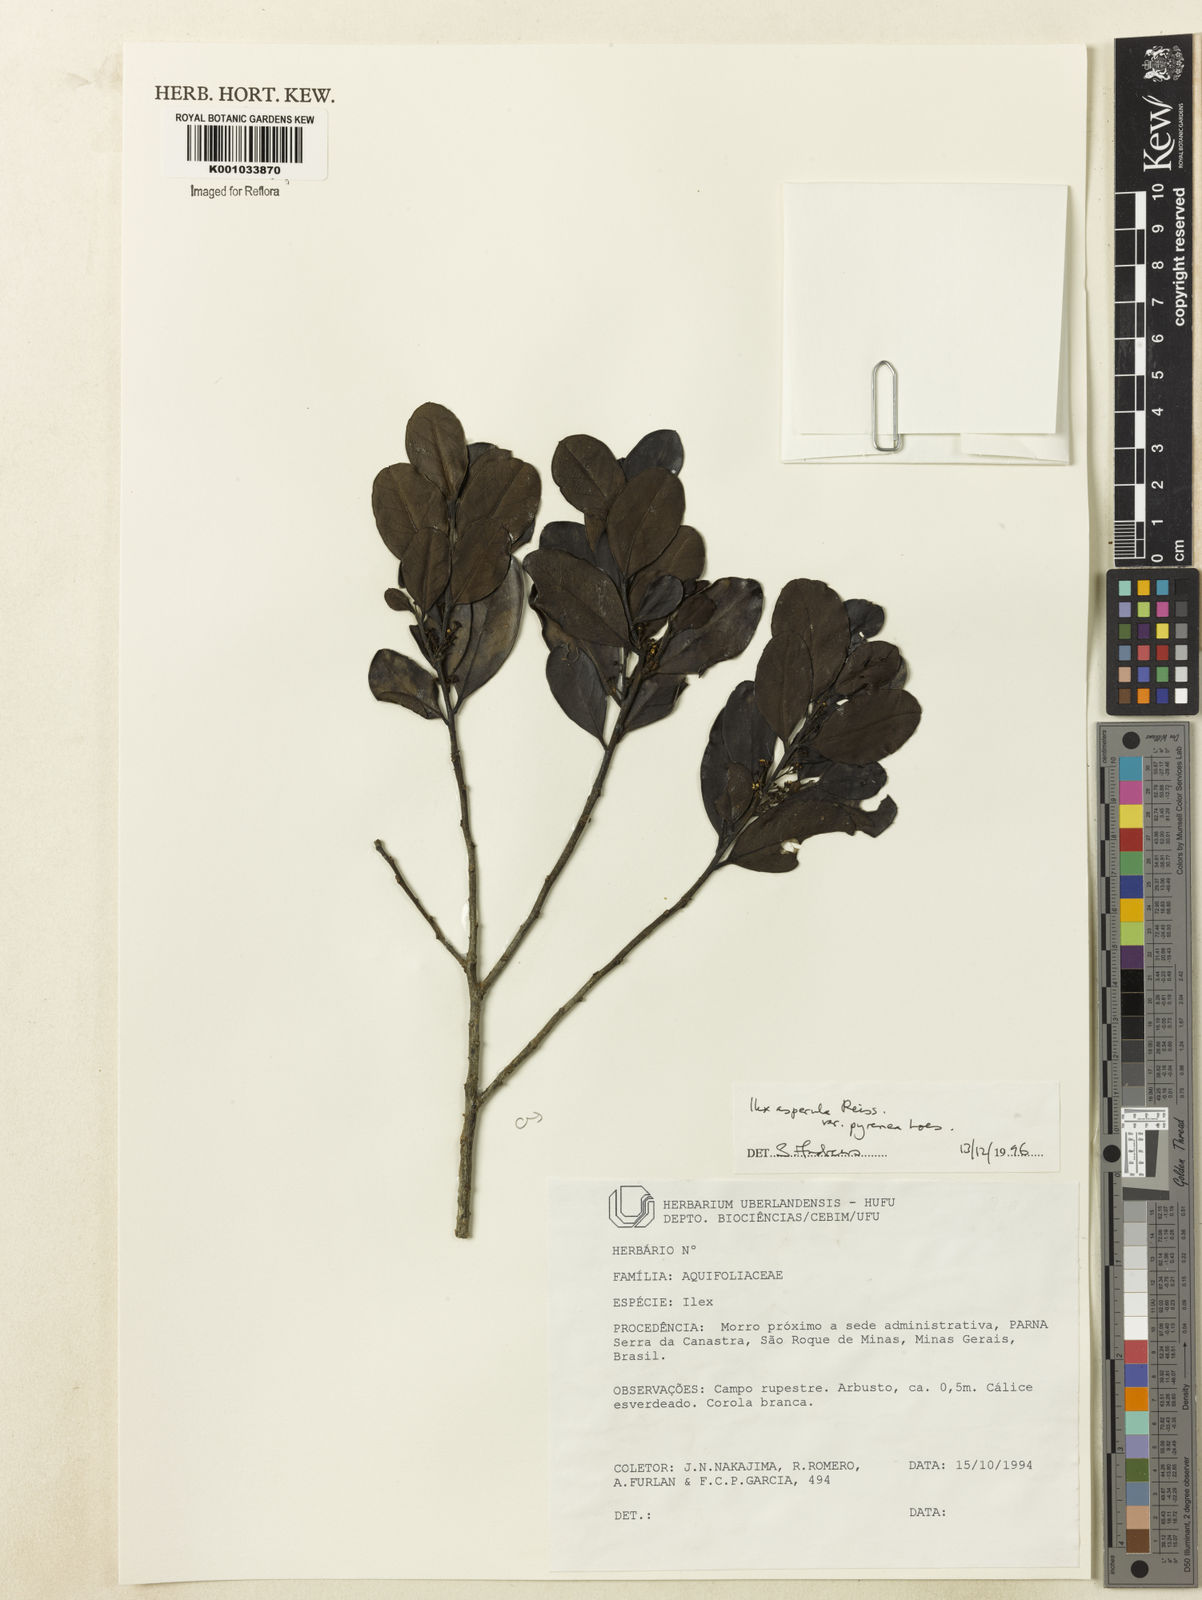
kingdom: Plantae
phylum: Tracheophyta
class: Magnoliopsida
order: Aquifoliales
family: Aquifoliaceae
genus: Ilex
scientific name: Ilex asperula
